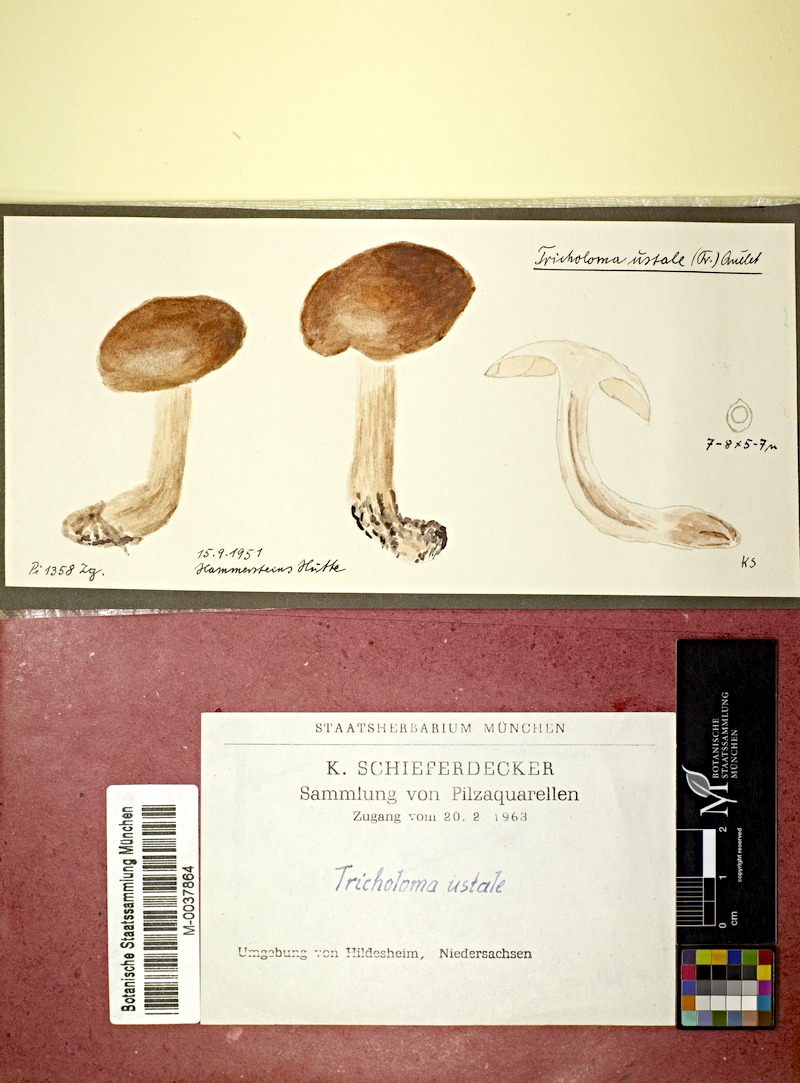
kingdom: Fungi
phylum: Basidiomycota
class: Agaricomycetes
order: Agaricales
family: Tricholomataceae
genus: Tricholoma
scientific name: Tricholoma ustale
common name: Burnt knight
